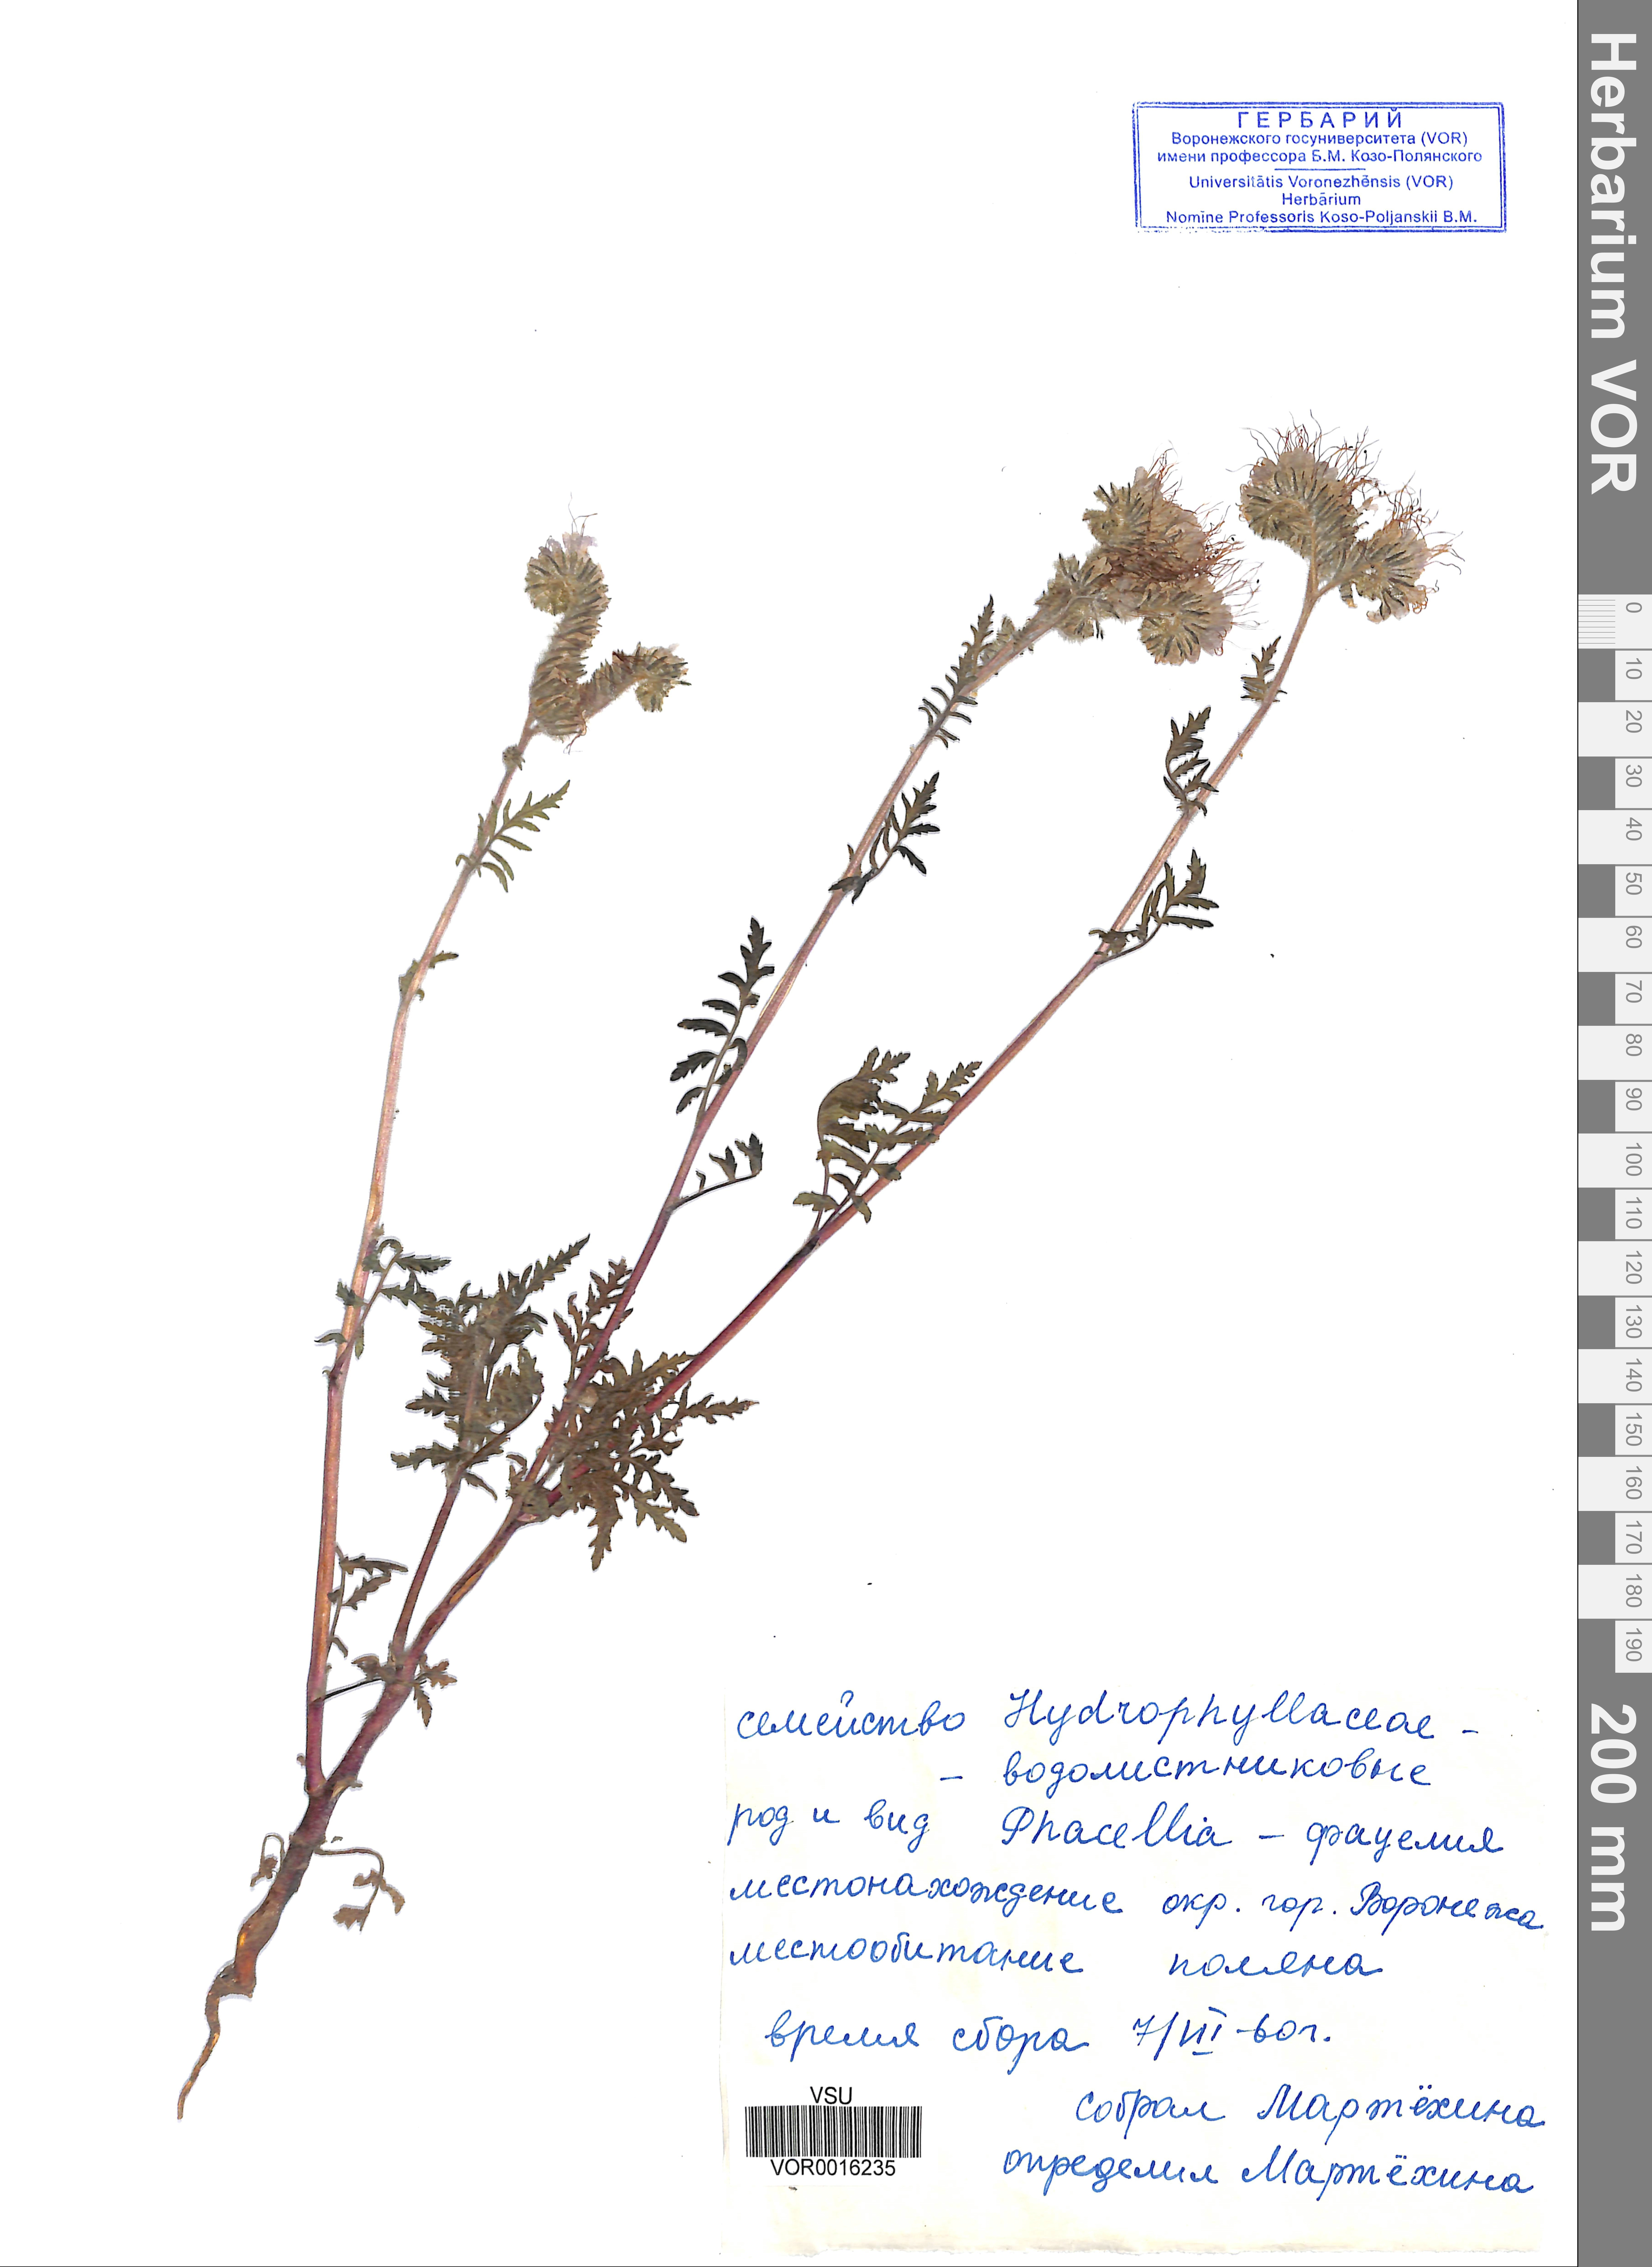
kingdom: Plantae
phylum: Tracheophyta
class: Magnoliopsida
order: Boraginales
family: Hydrophyllaceae
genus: Phacelia
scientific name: Phacelia tanacetifolia
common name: Phacelia
